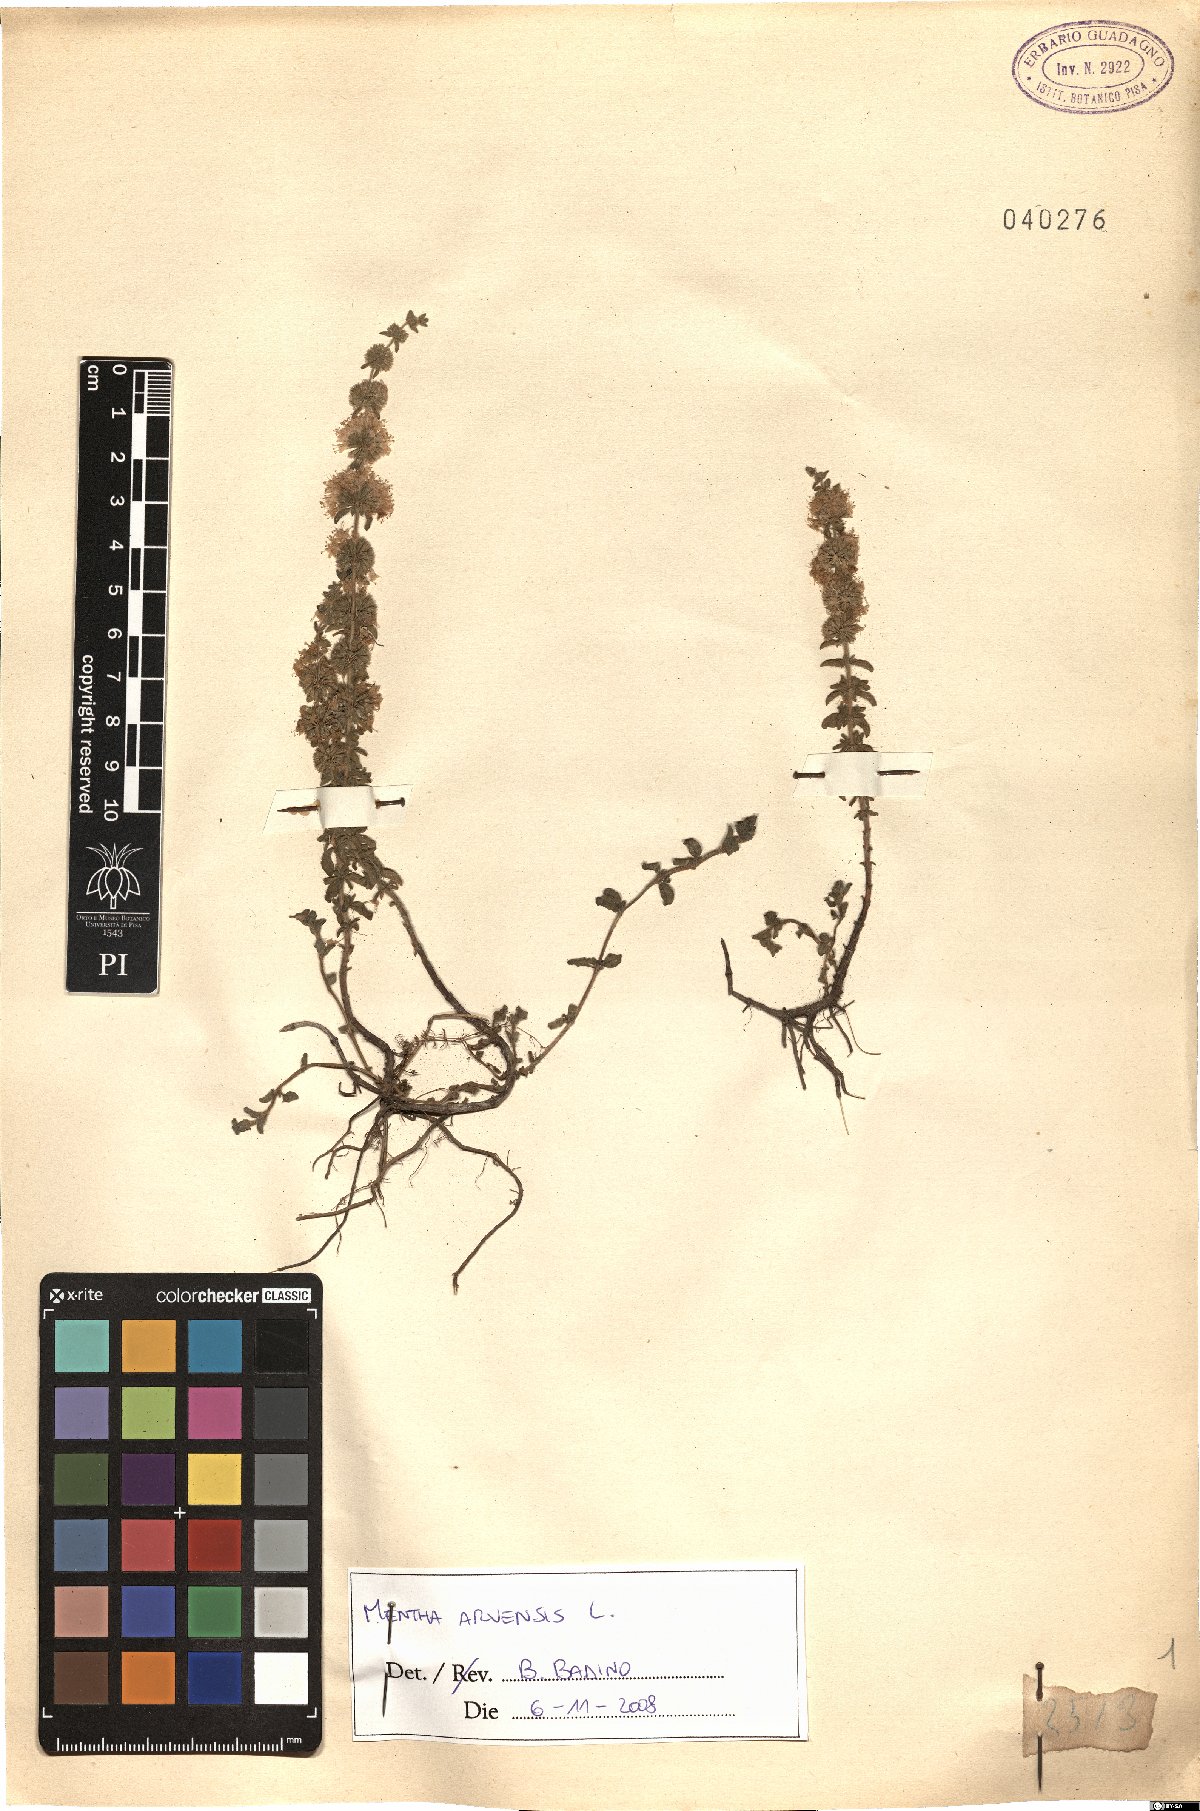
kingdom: Plantae
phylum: Tracheophyta
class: Magnoliopsida
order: Lamiales
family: Lamiaceae
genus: Mentha
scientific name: Mentha arvensis
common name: Corn mint
